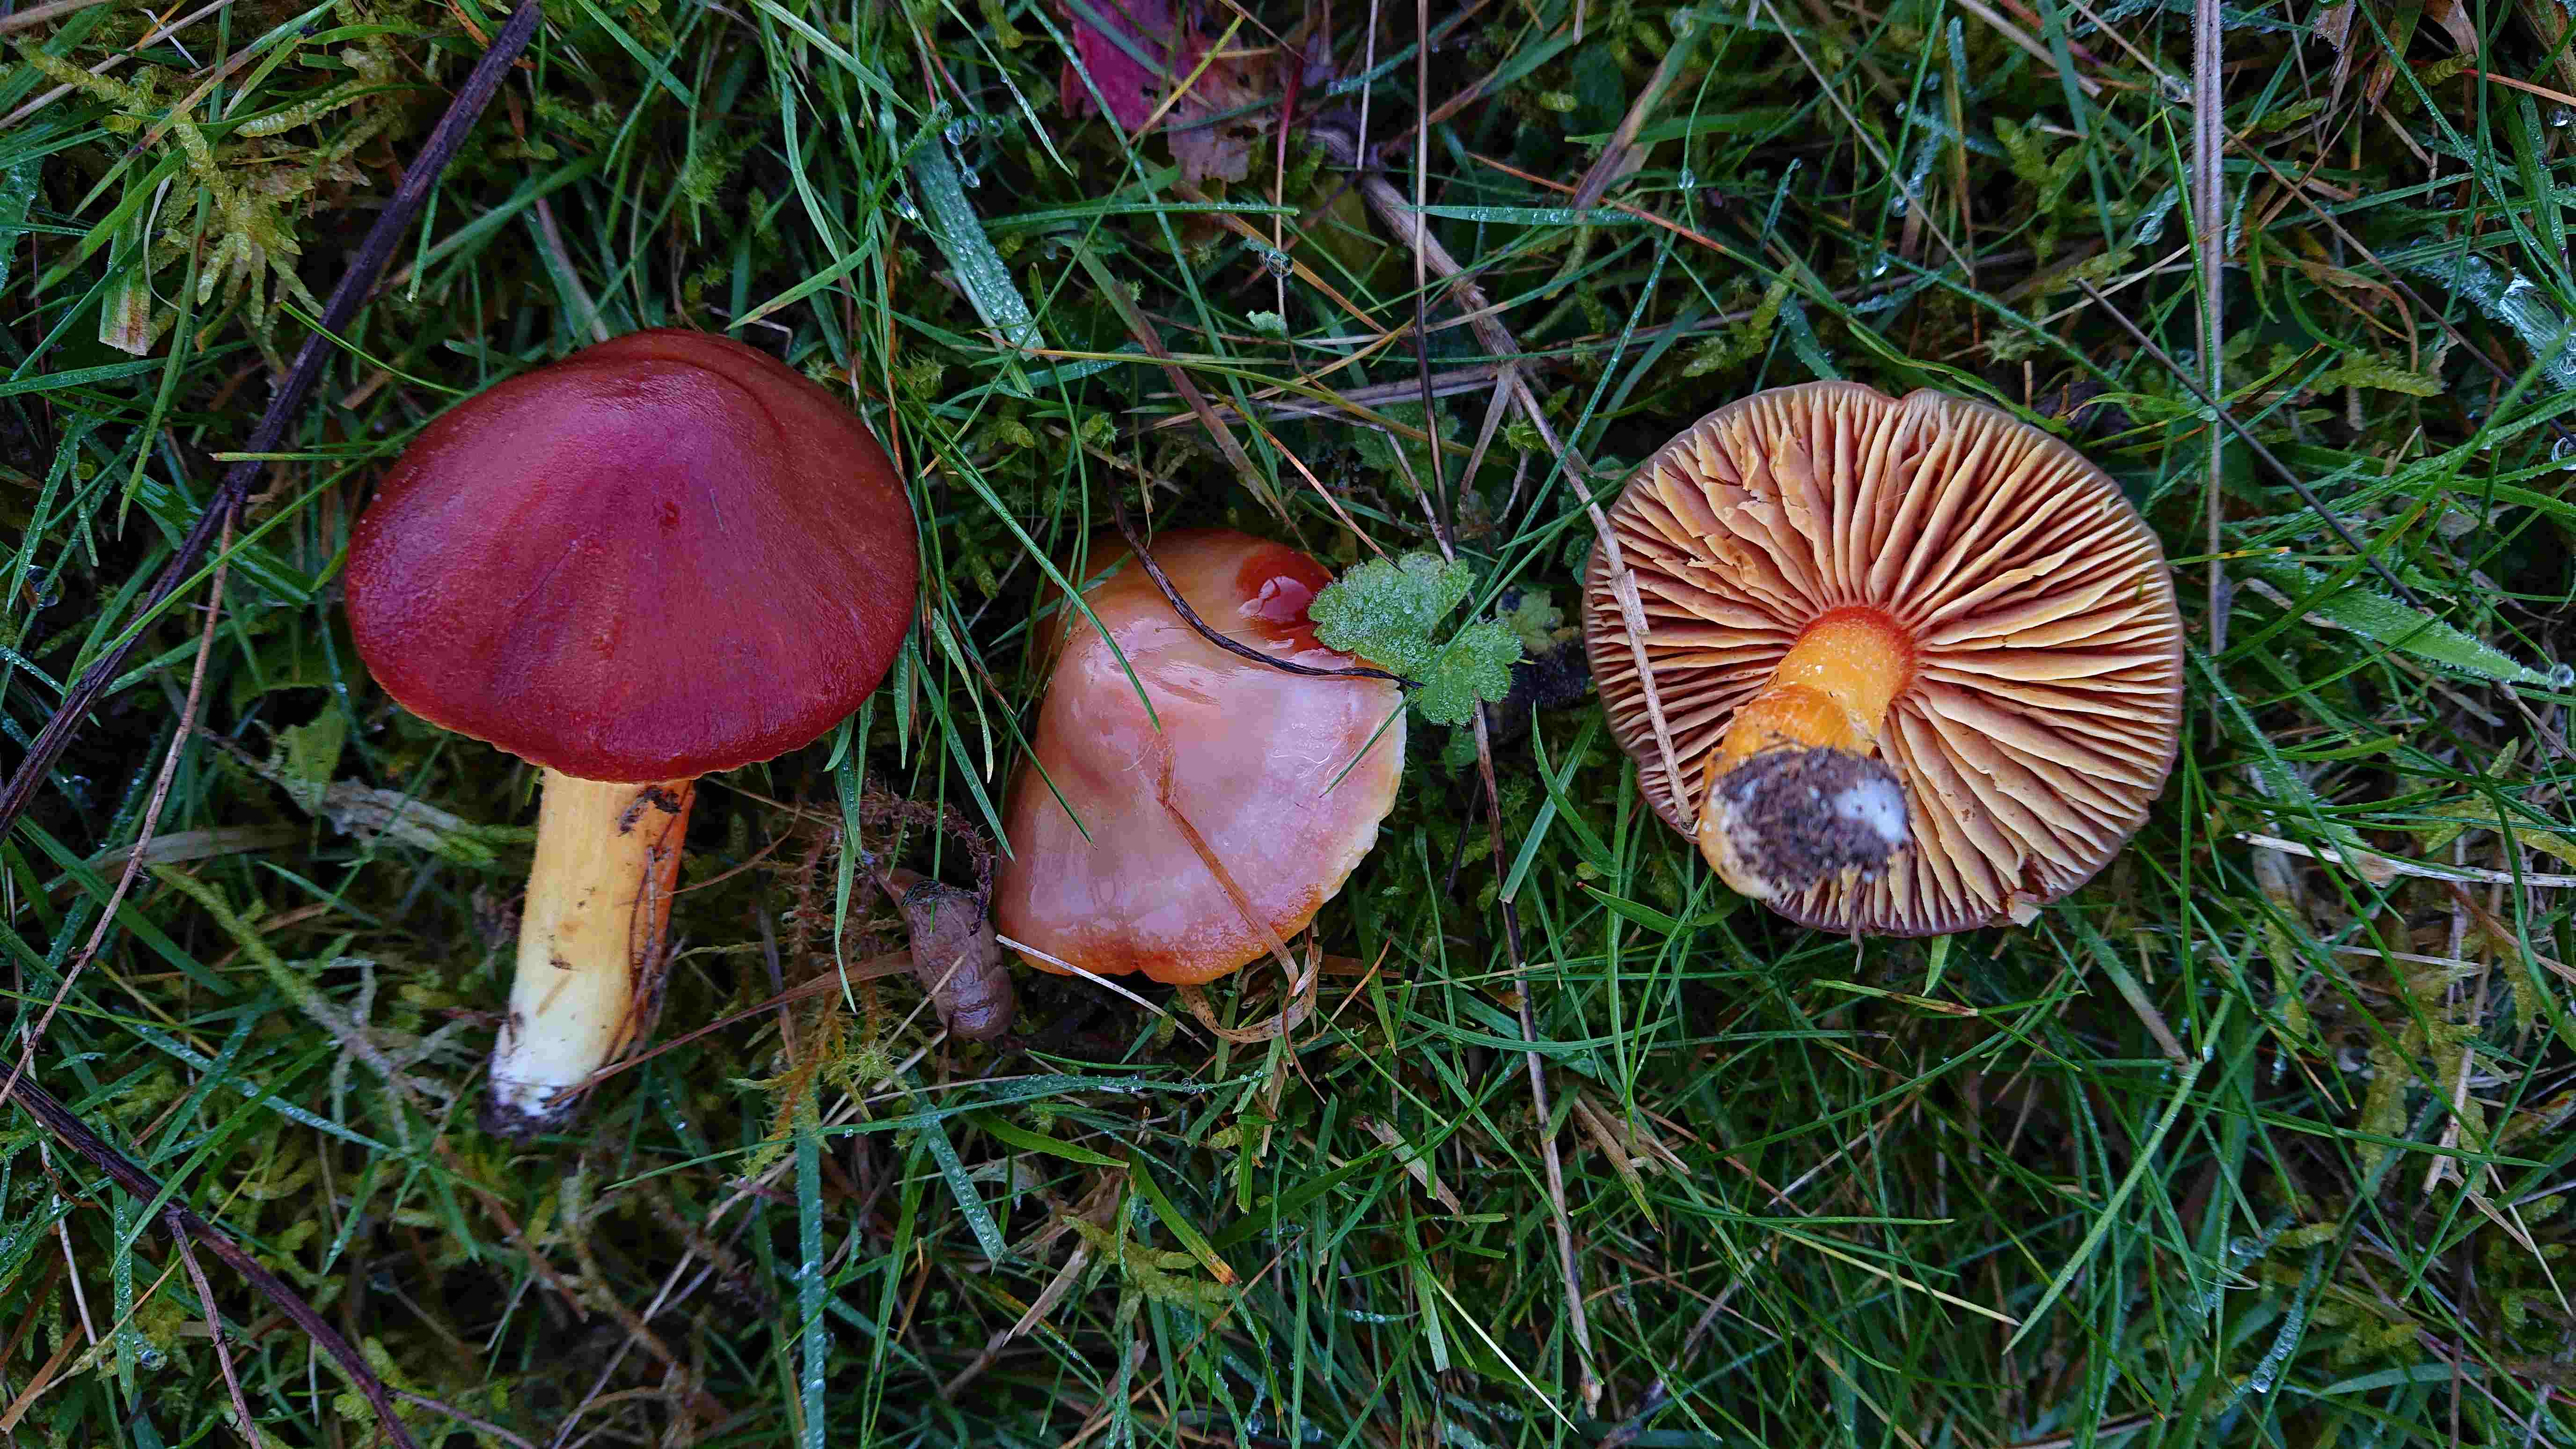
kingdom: Fungi
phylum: Basidiomycota
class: Agaricomycetes
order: Agaricales
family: Hygrophoraceae
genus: Hygrocybe
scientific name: Hygrocybe punicea
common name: skarlagen-vokshat
